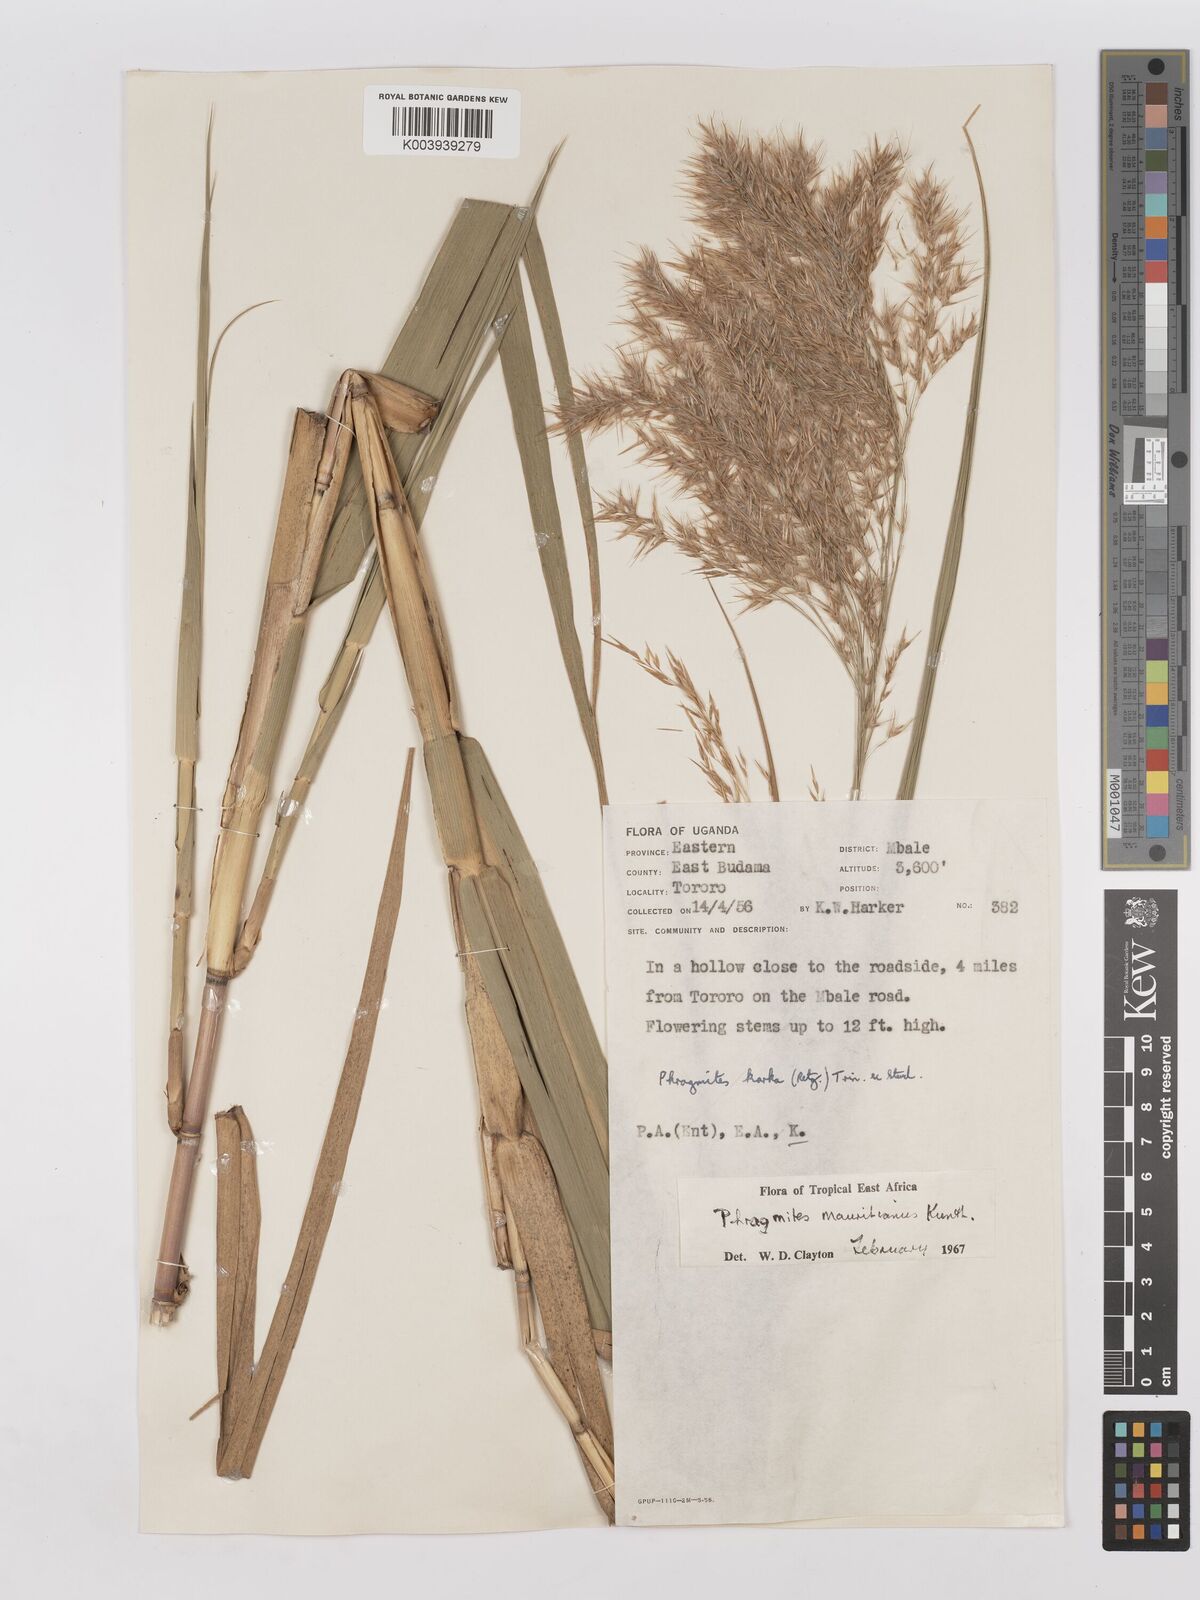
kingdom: Plantae
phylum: Tracheophyta
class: Liliopsida
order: Poales
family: Poaceae
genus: Phragmites
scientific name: Phragmites mauritianus
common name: Reed grass
